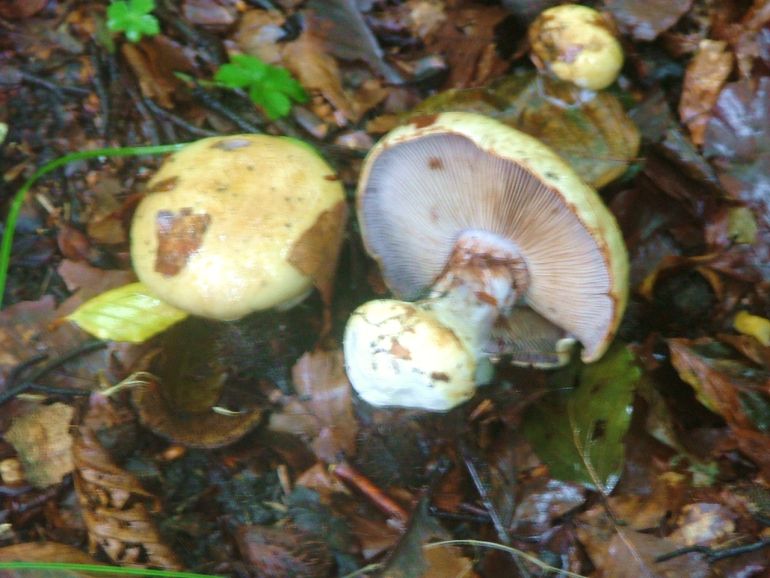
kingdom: Fungi
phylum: Basidiomycota
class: Agaricomycetes
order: Agaricales
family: Cortinariaceae
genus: Cortinarius
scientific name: Cortinarius anserinus
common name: bøge-slørhat
